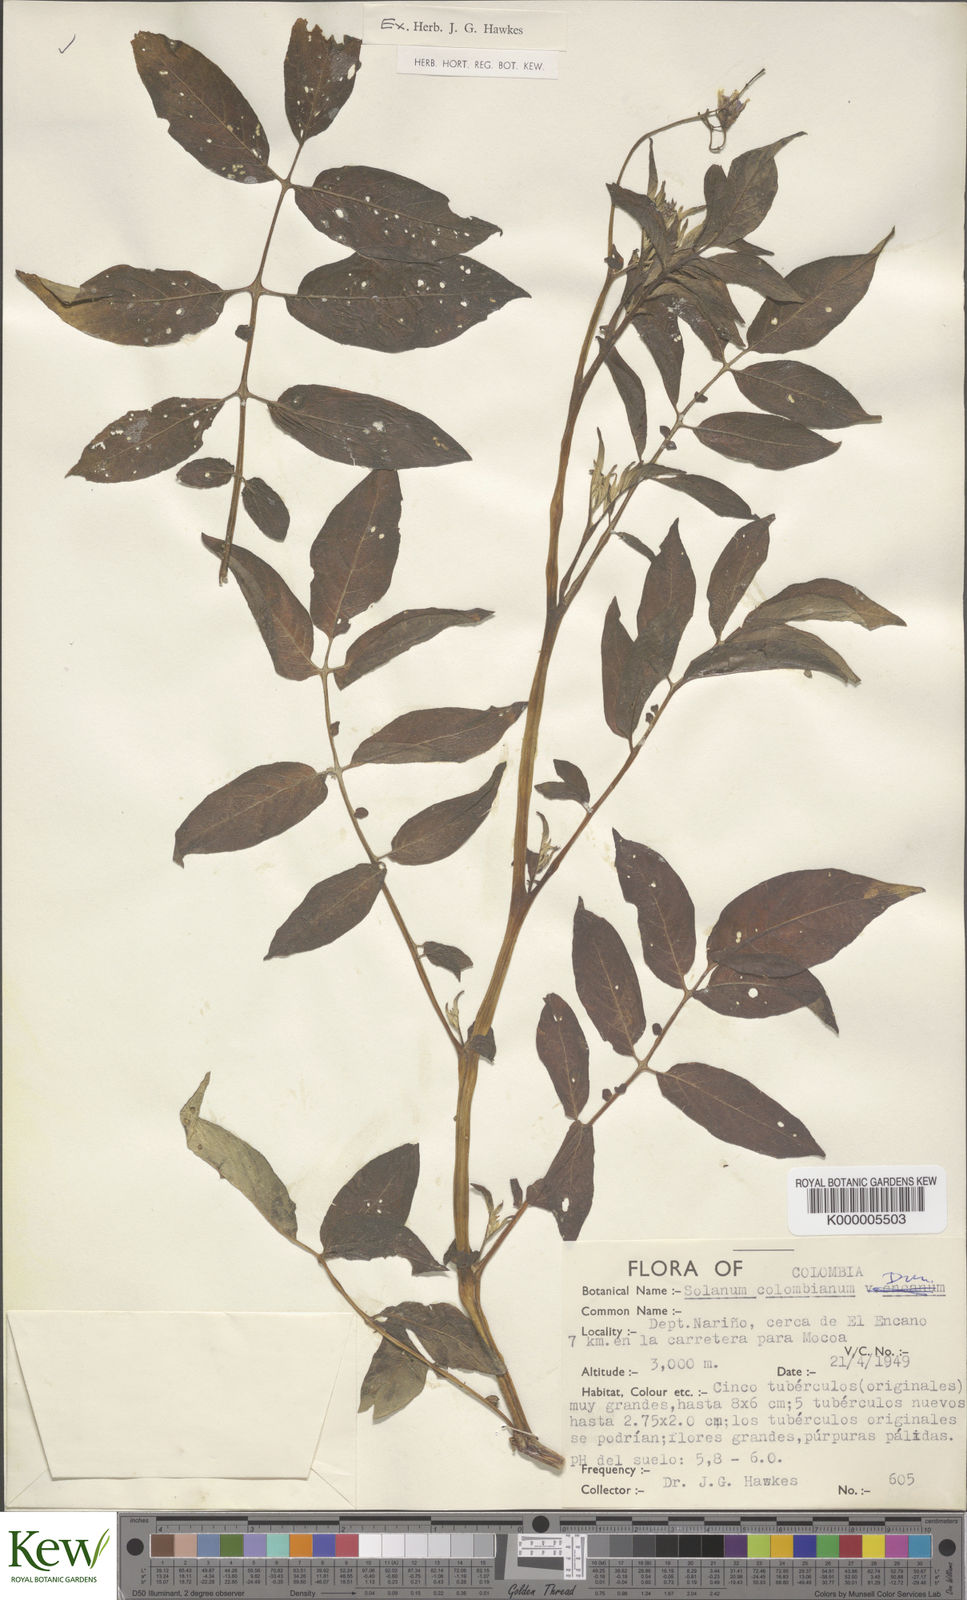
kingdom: Plantae
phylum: Tracheophyta
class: Magnoliopsida
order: Solanales
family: Solanaceae
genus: Solanum
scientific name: Solanum colombianum
